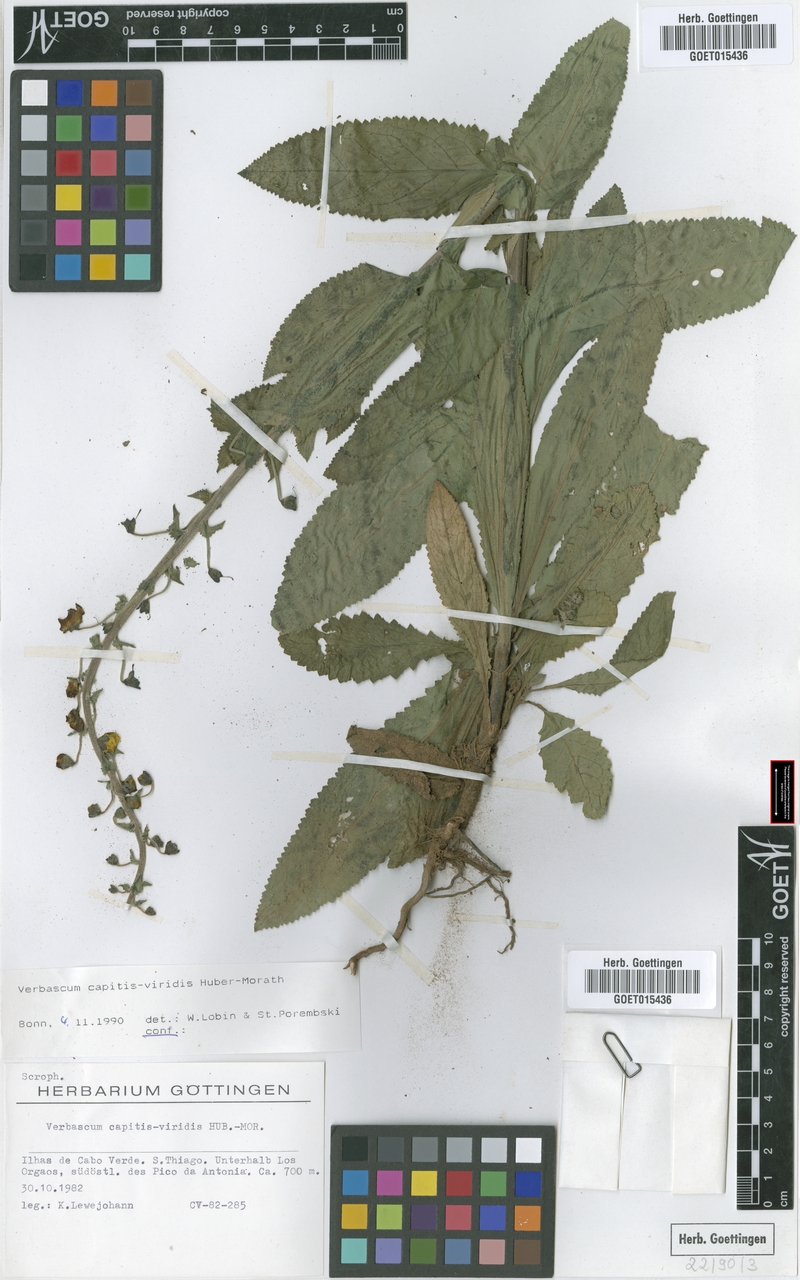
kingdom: Plantae
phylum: Tracheophyta
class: Magnoliopsida
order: Lamiales
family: Scrophulariaceae
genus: Verbascum
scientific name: Verbascum capitis-viridis
